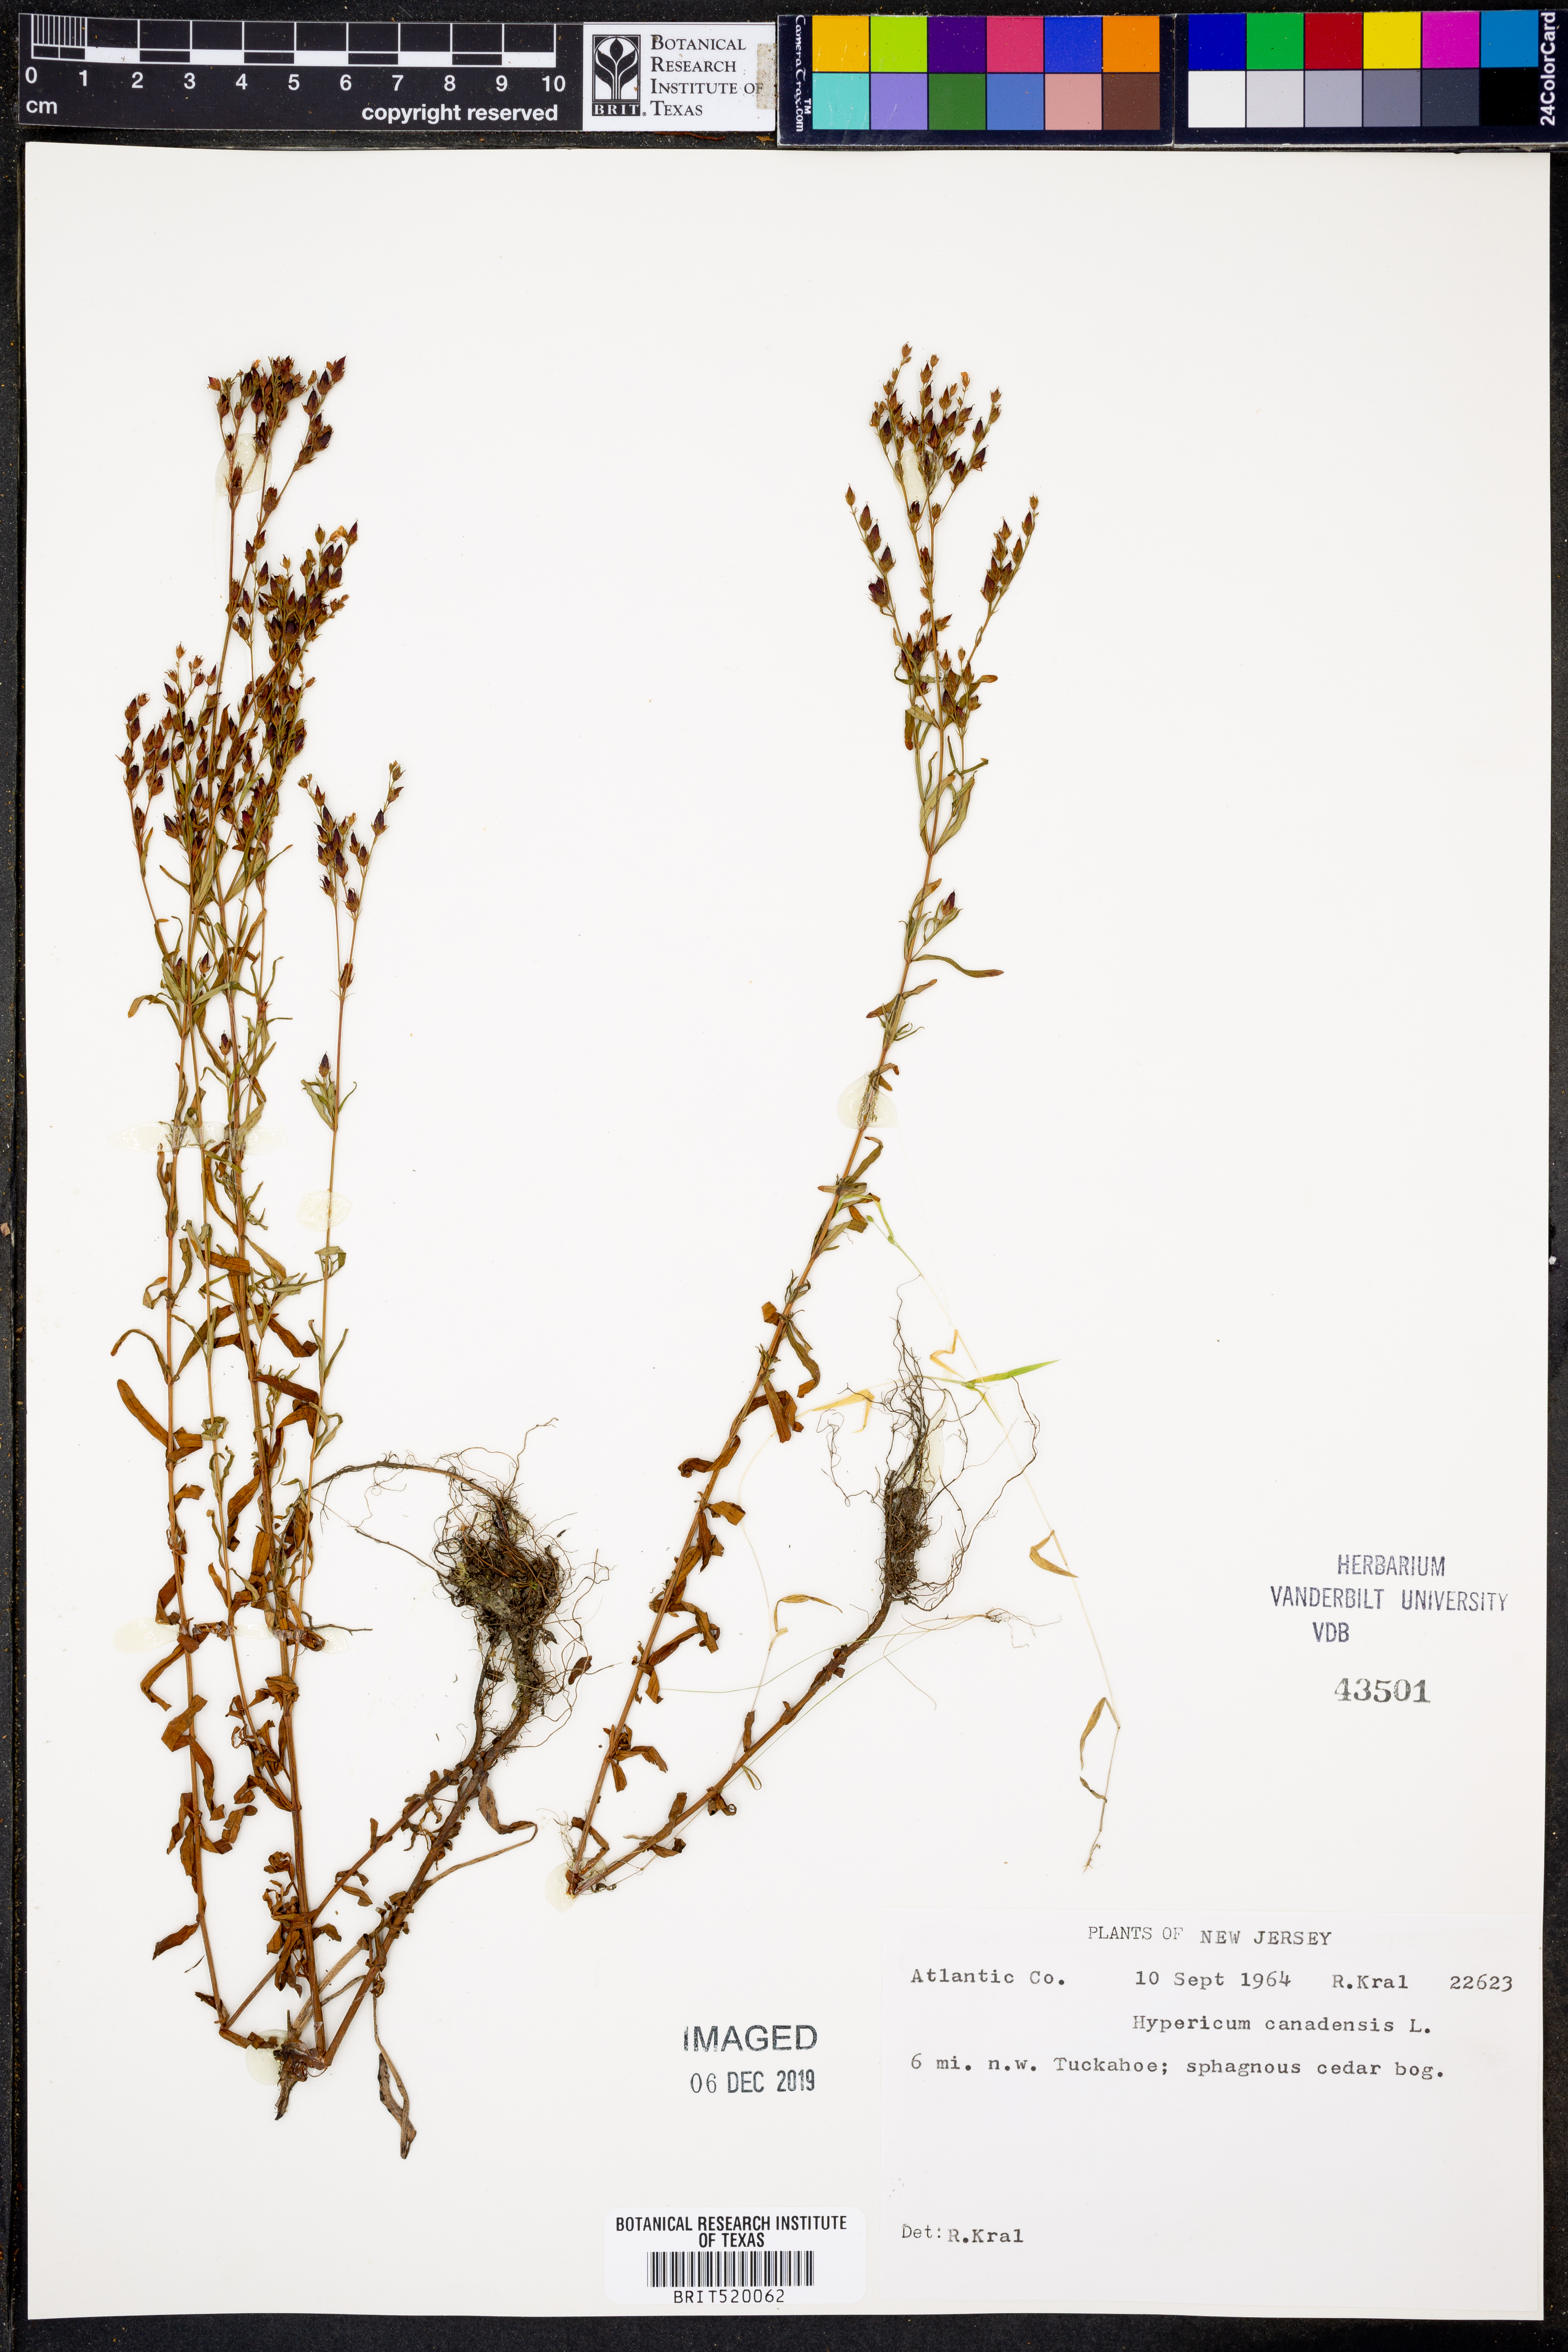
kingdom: Plantae
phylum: Tracheophyta
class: Magnoliopsida
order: Malpighiales
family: Hypericaceae
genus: Hypericum
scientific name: Hypericum canadense
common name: Irish st. john's-wort
